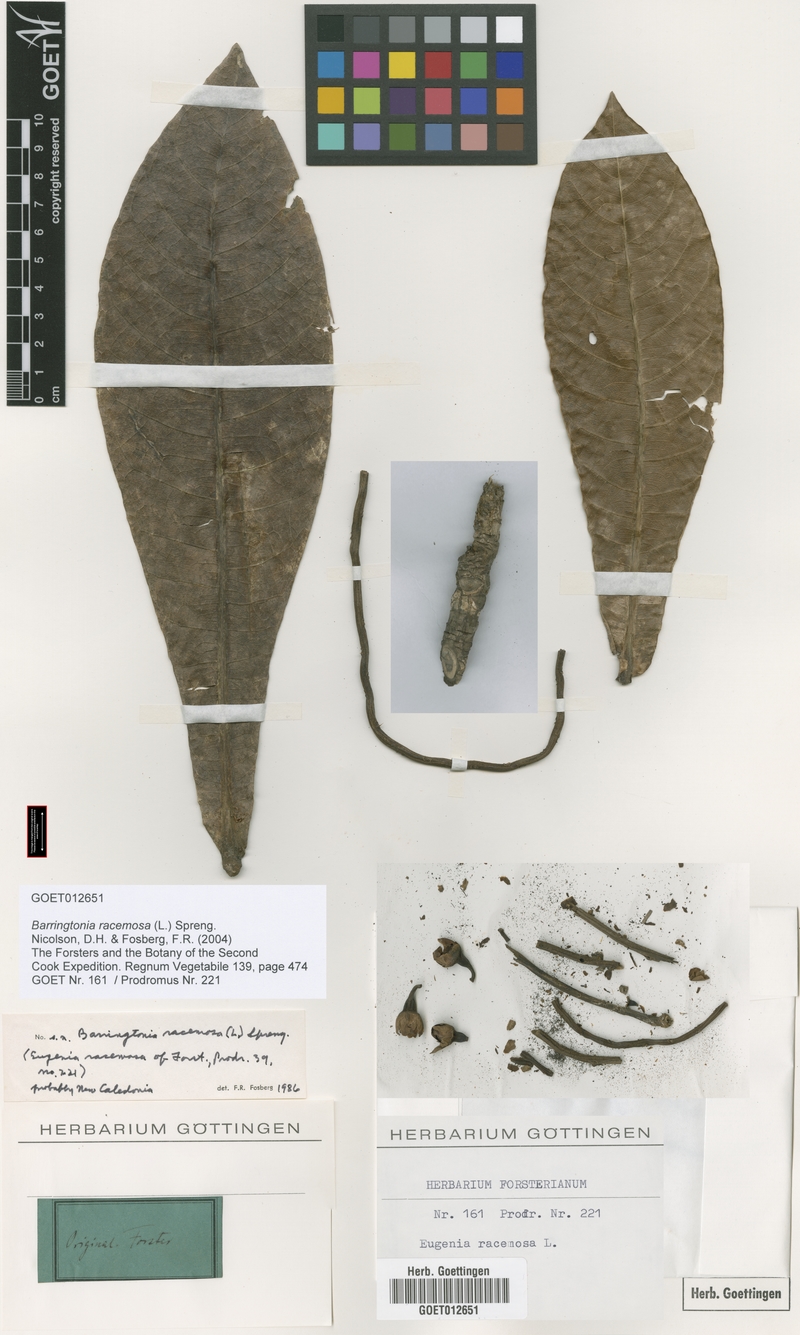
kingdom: Plantae
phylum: Tracheophyta
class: Magnoliopsida
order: Ericales
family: Lecythidaceae
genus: Barringtonia
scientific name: Barringtonia racemosa
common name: Brackwater mangrove
